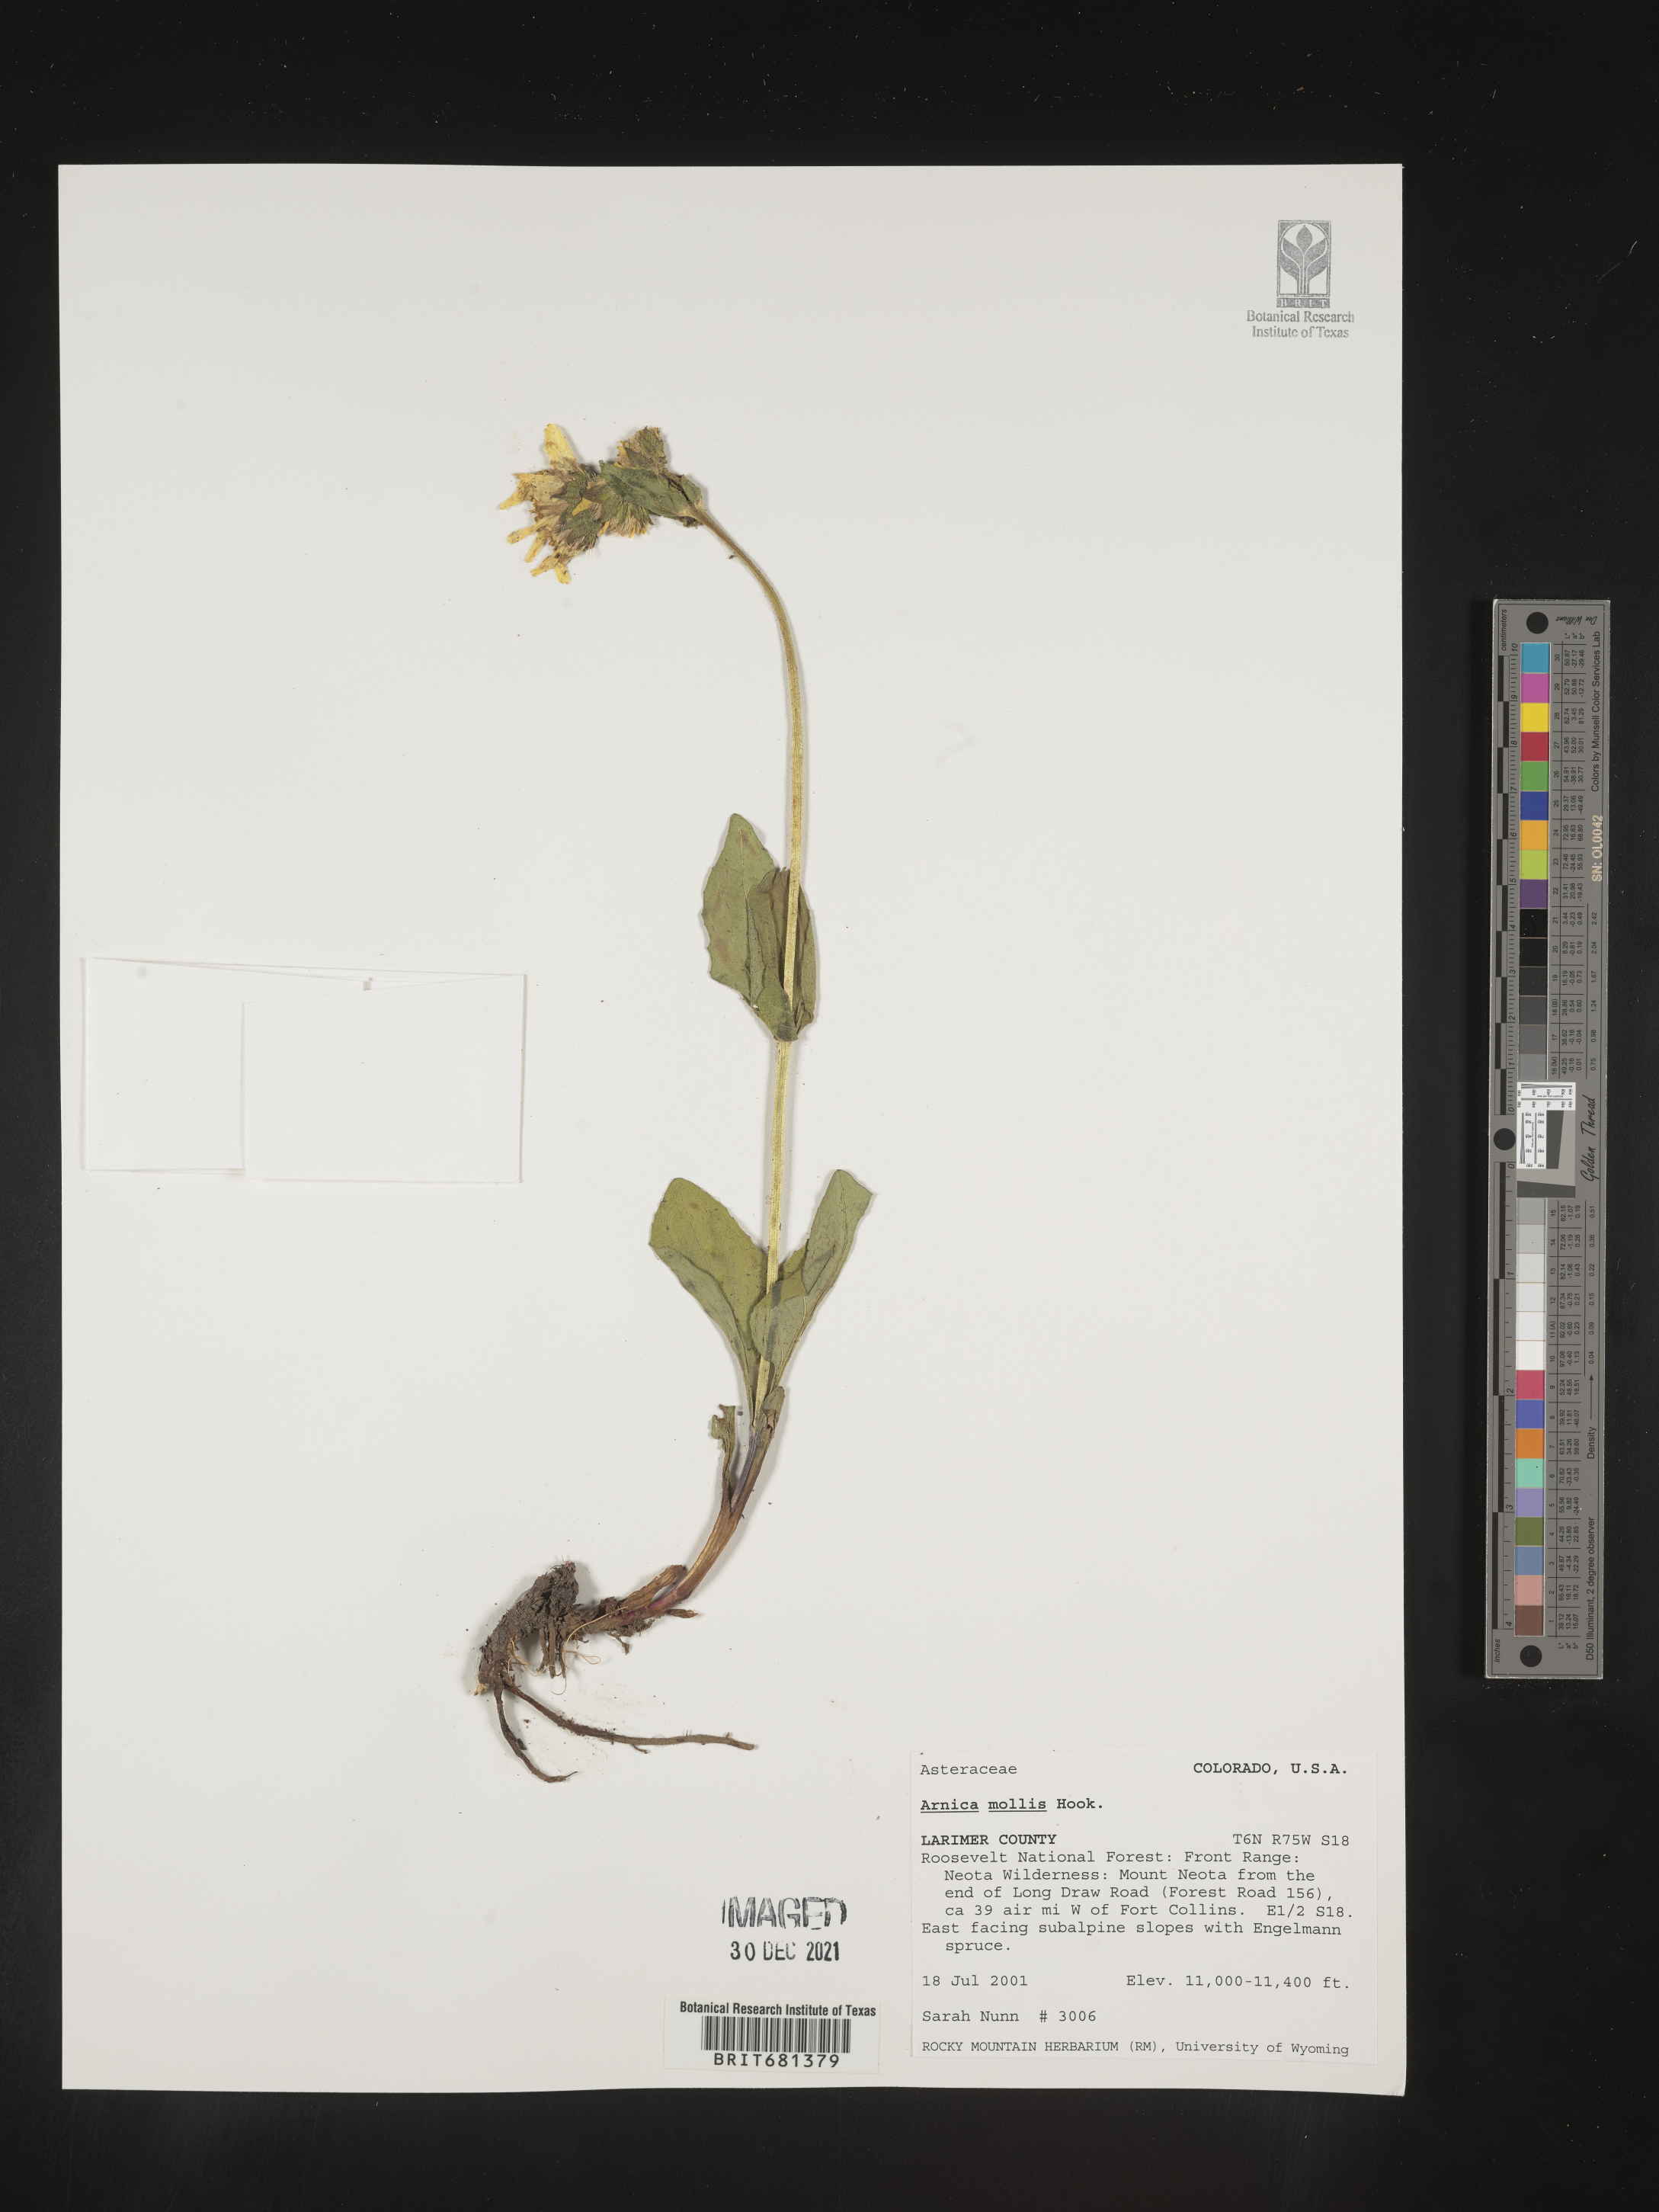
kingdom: Plantae
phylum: Tracheophyta
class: Magnoliopsida
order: Asterales
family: Asteraceae
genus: Arnica
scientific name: Arnica mollis
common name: Hairy arnica
